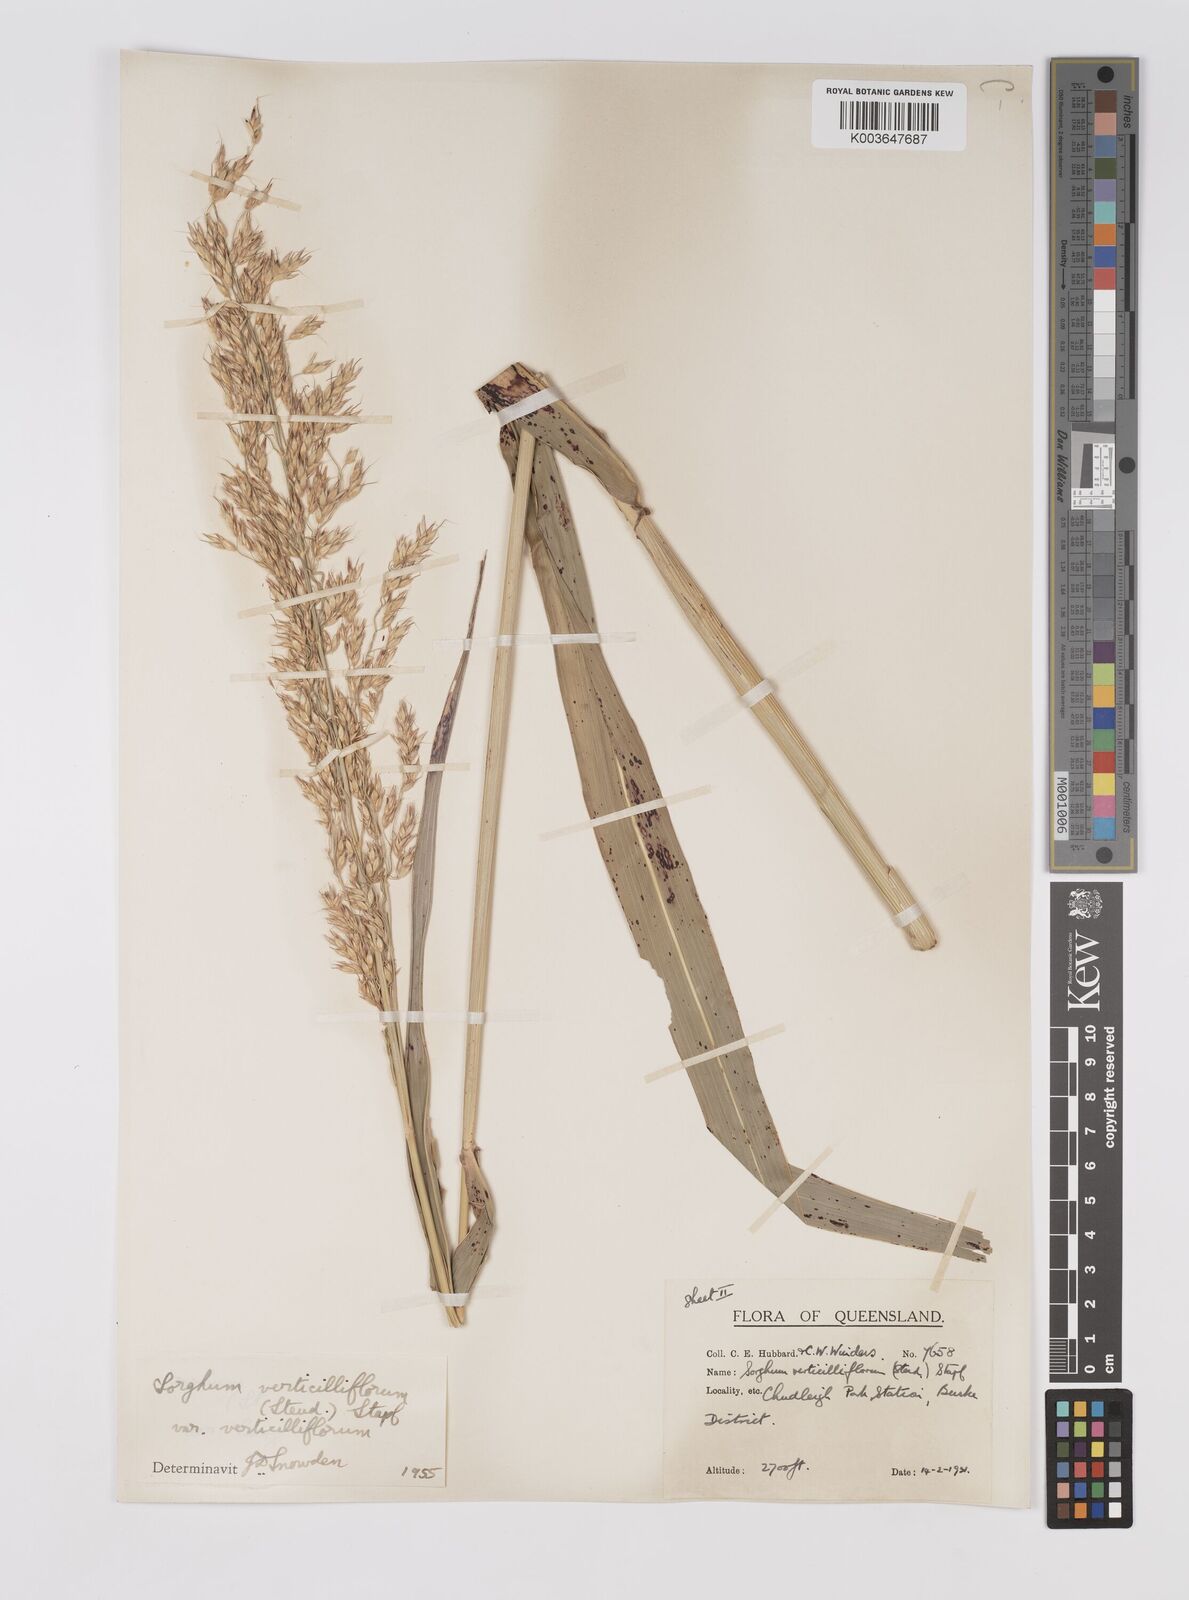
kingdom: Plantae
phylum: Tracheophyta
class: Liliopsida
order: Poales
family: Poaceae
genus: Sorghum
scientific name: Sorghum arundinaceum
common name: Sorghum
